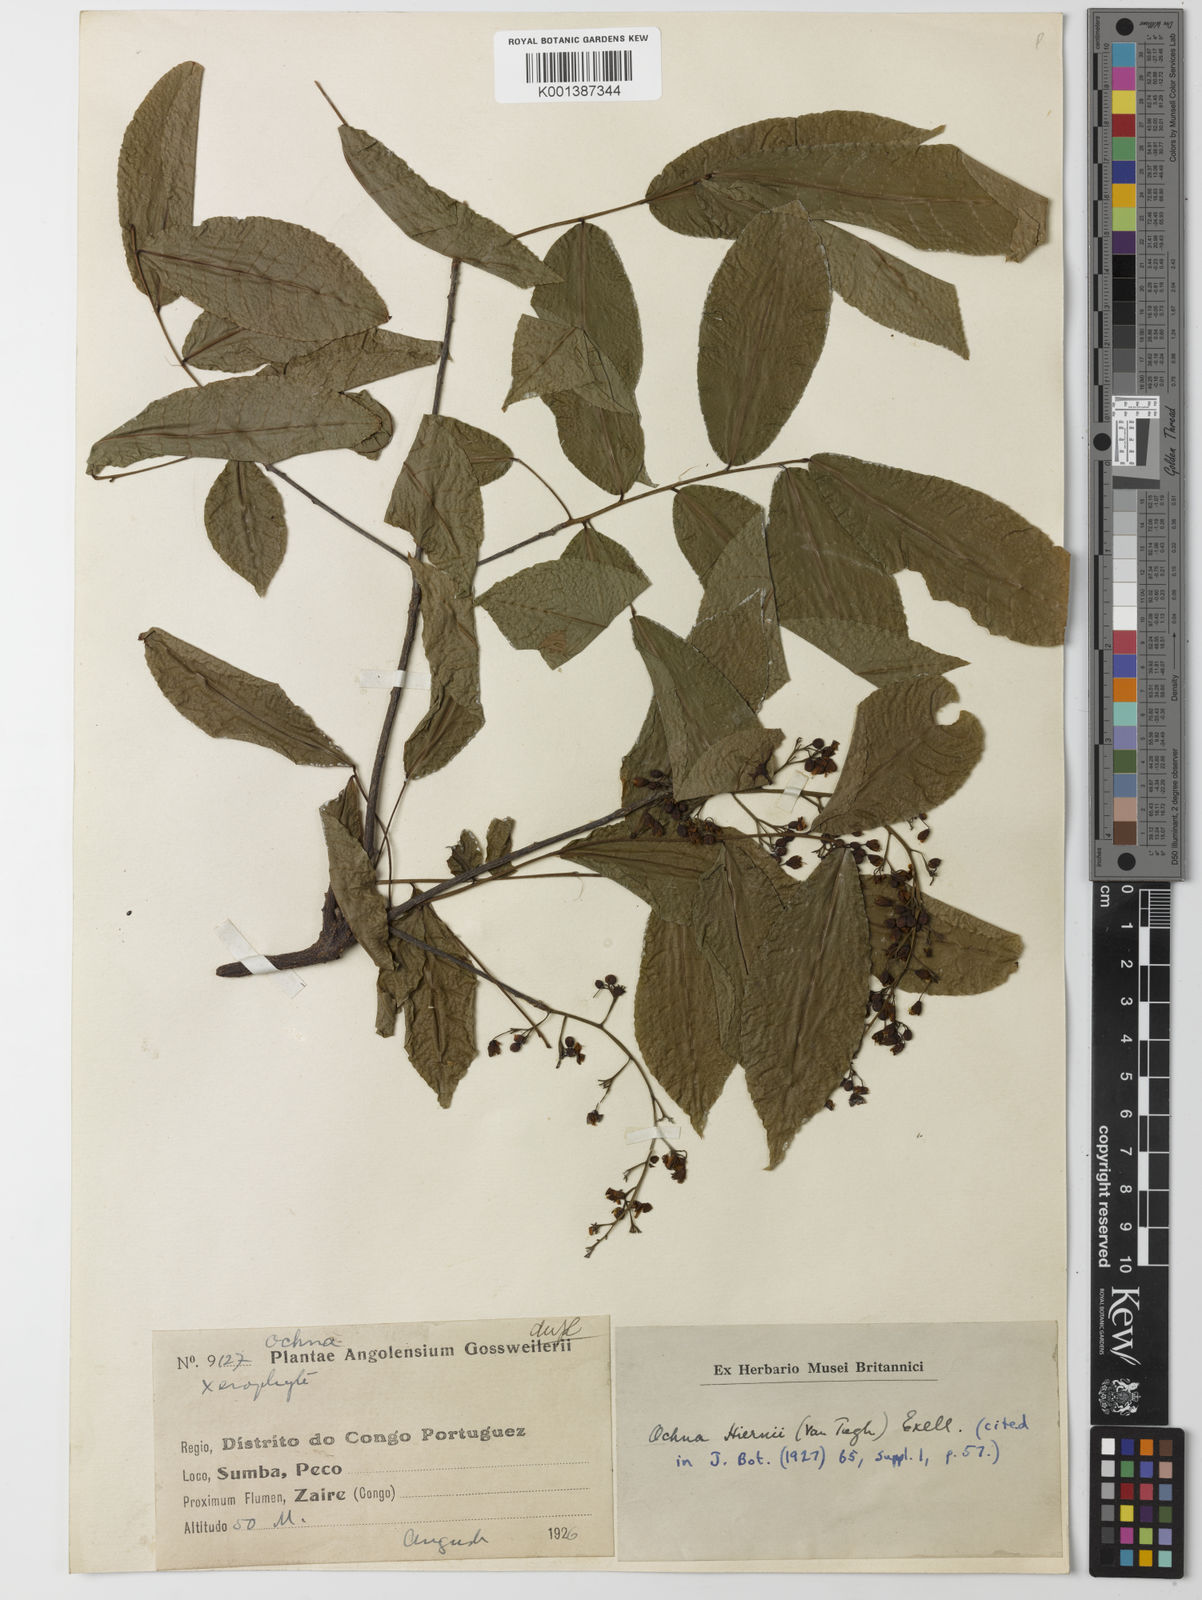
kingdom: Plantae
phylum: Tracheophyta
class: Magnoliopsida
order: Malpighiales
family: Ochnaceae
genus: Ochna
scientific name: Ochna membranacea
